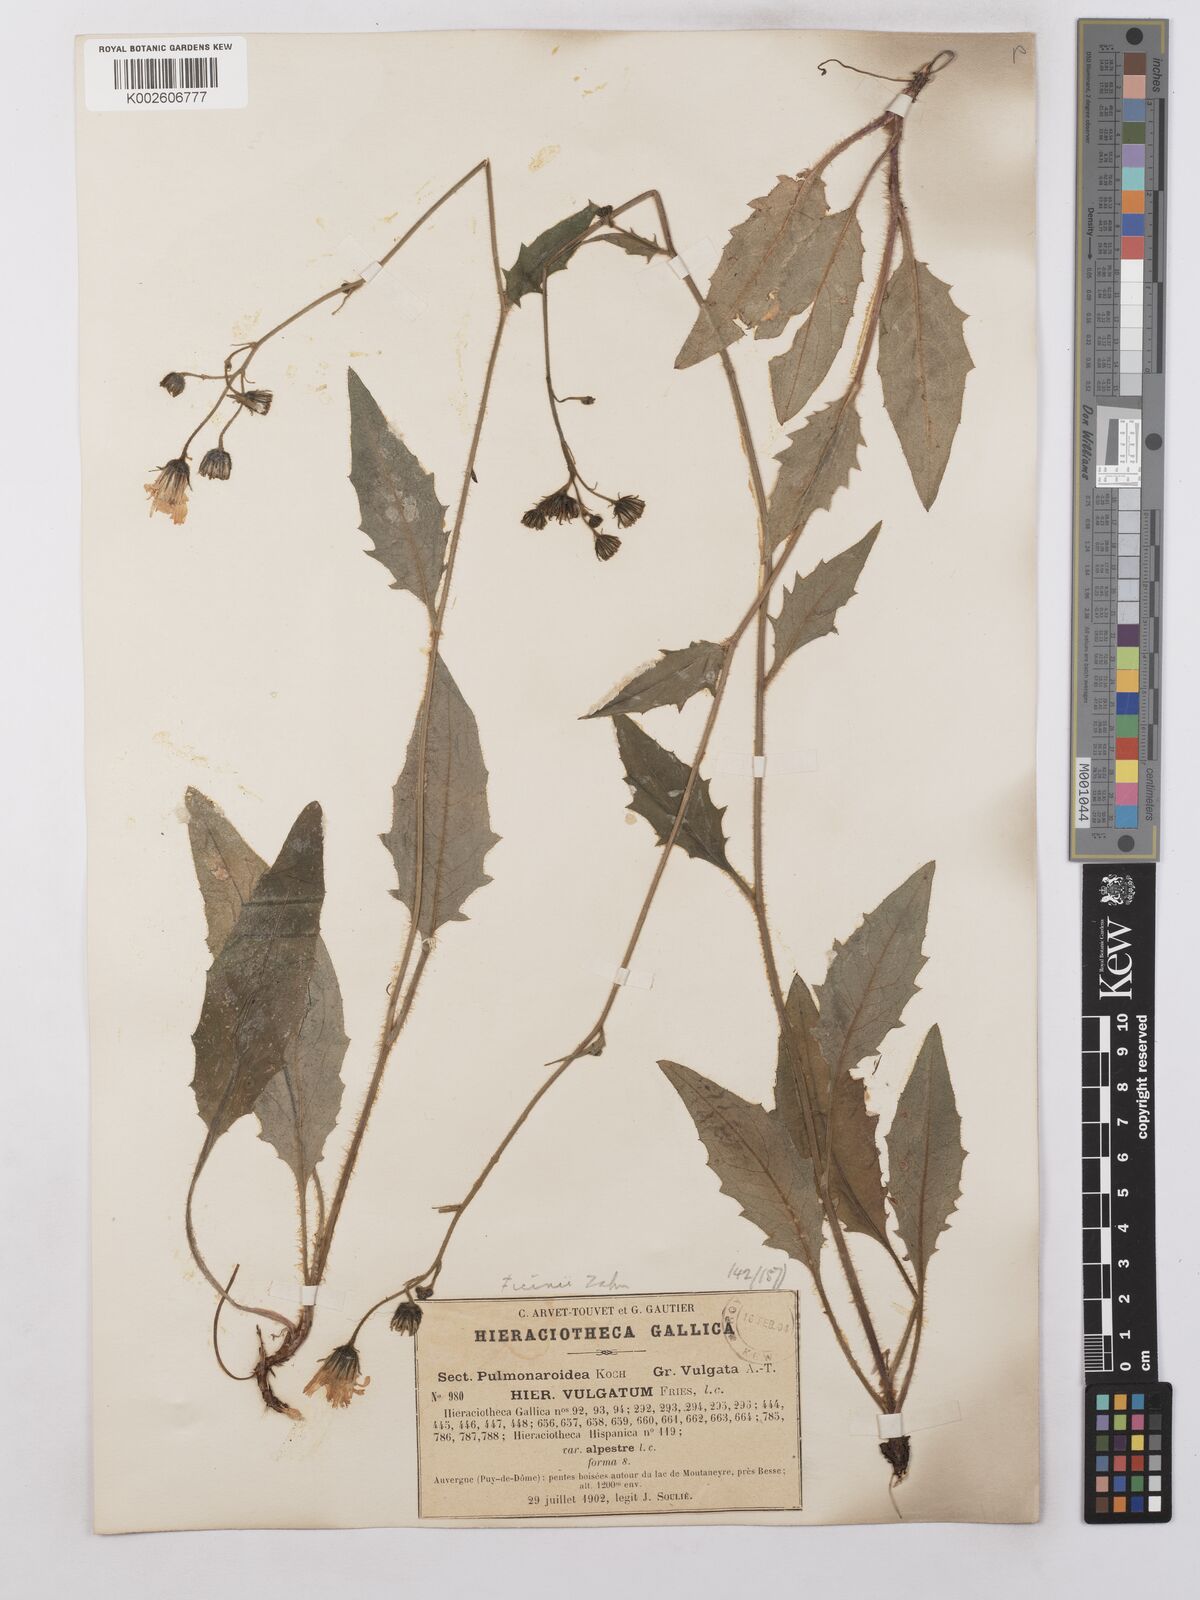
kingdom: Plantae
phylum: Tracheophyta
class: Magnoliopsida
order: Asterales
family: Asteraceae
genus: Hieracium
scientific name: Hieracium lachenalii
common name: Common hawkweed
